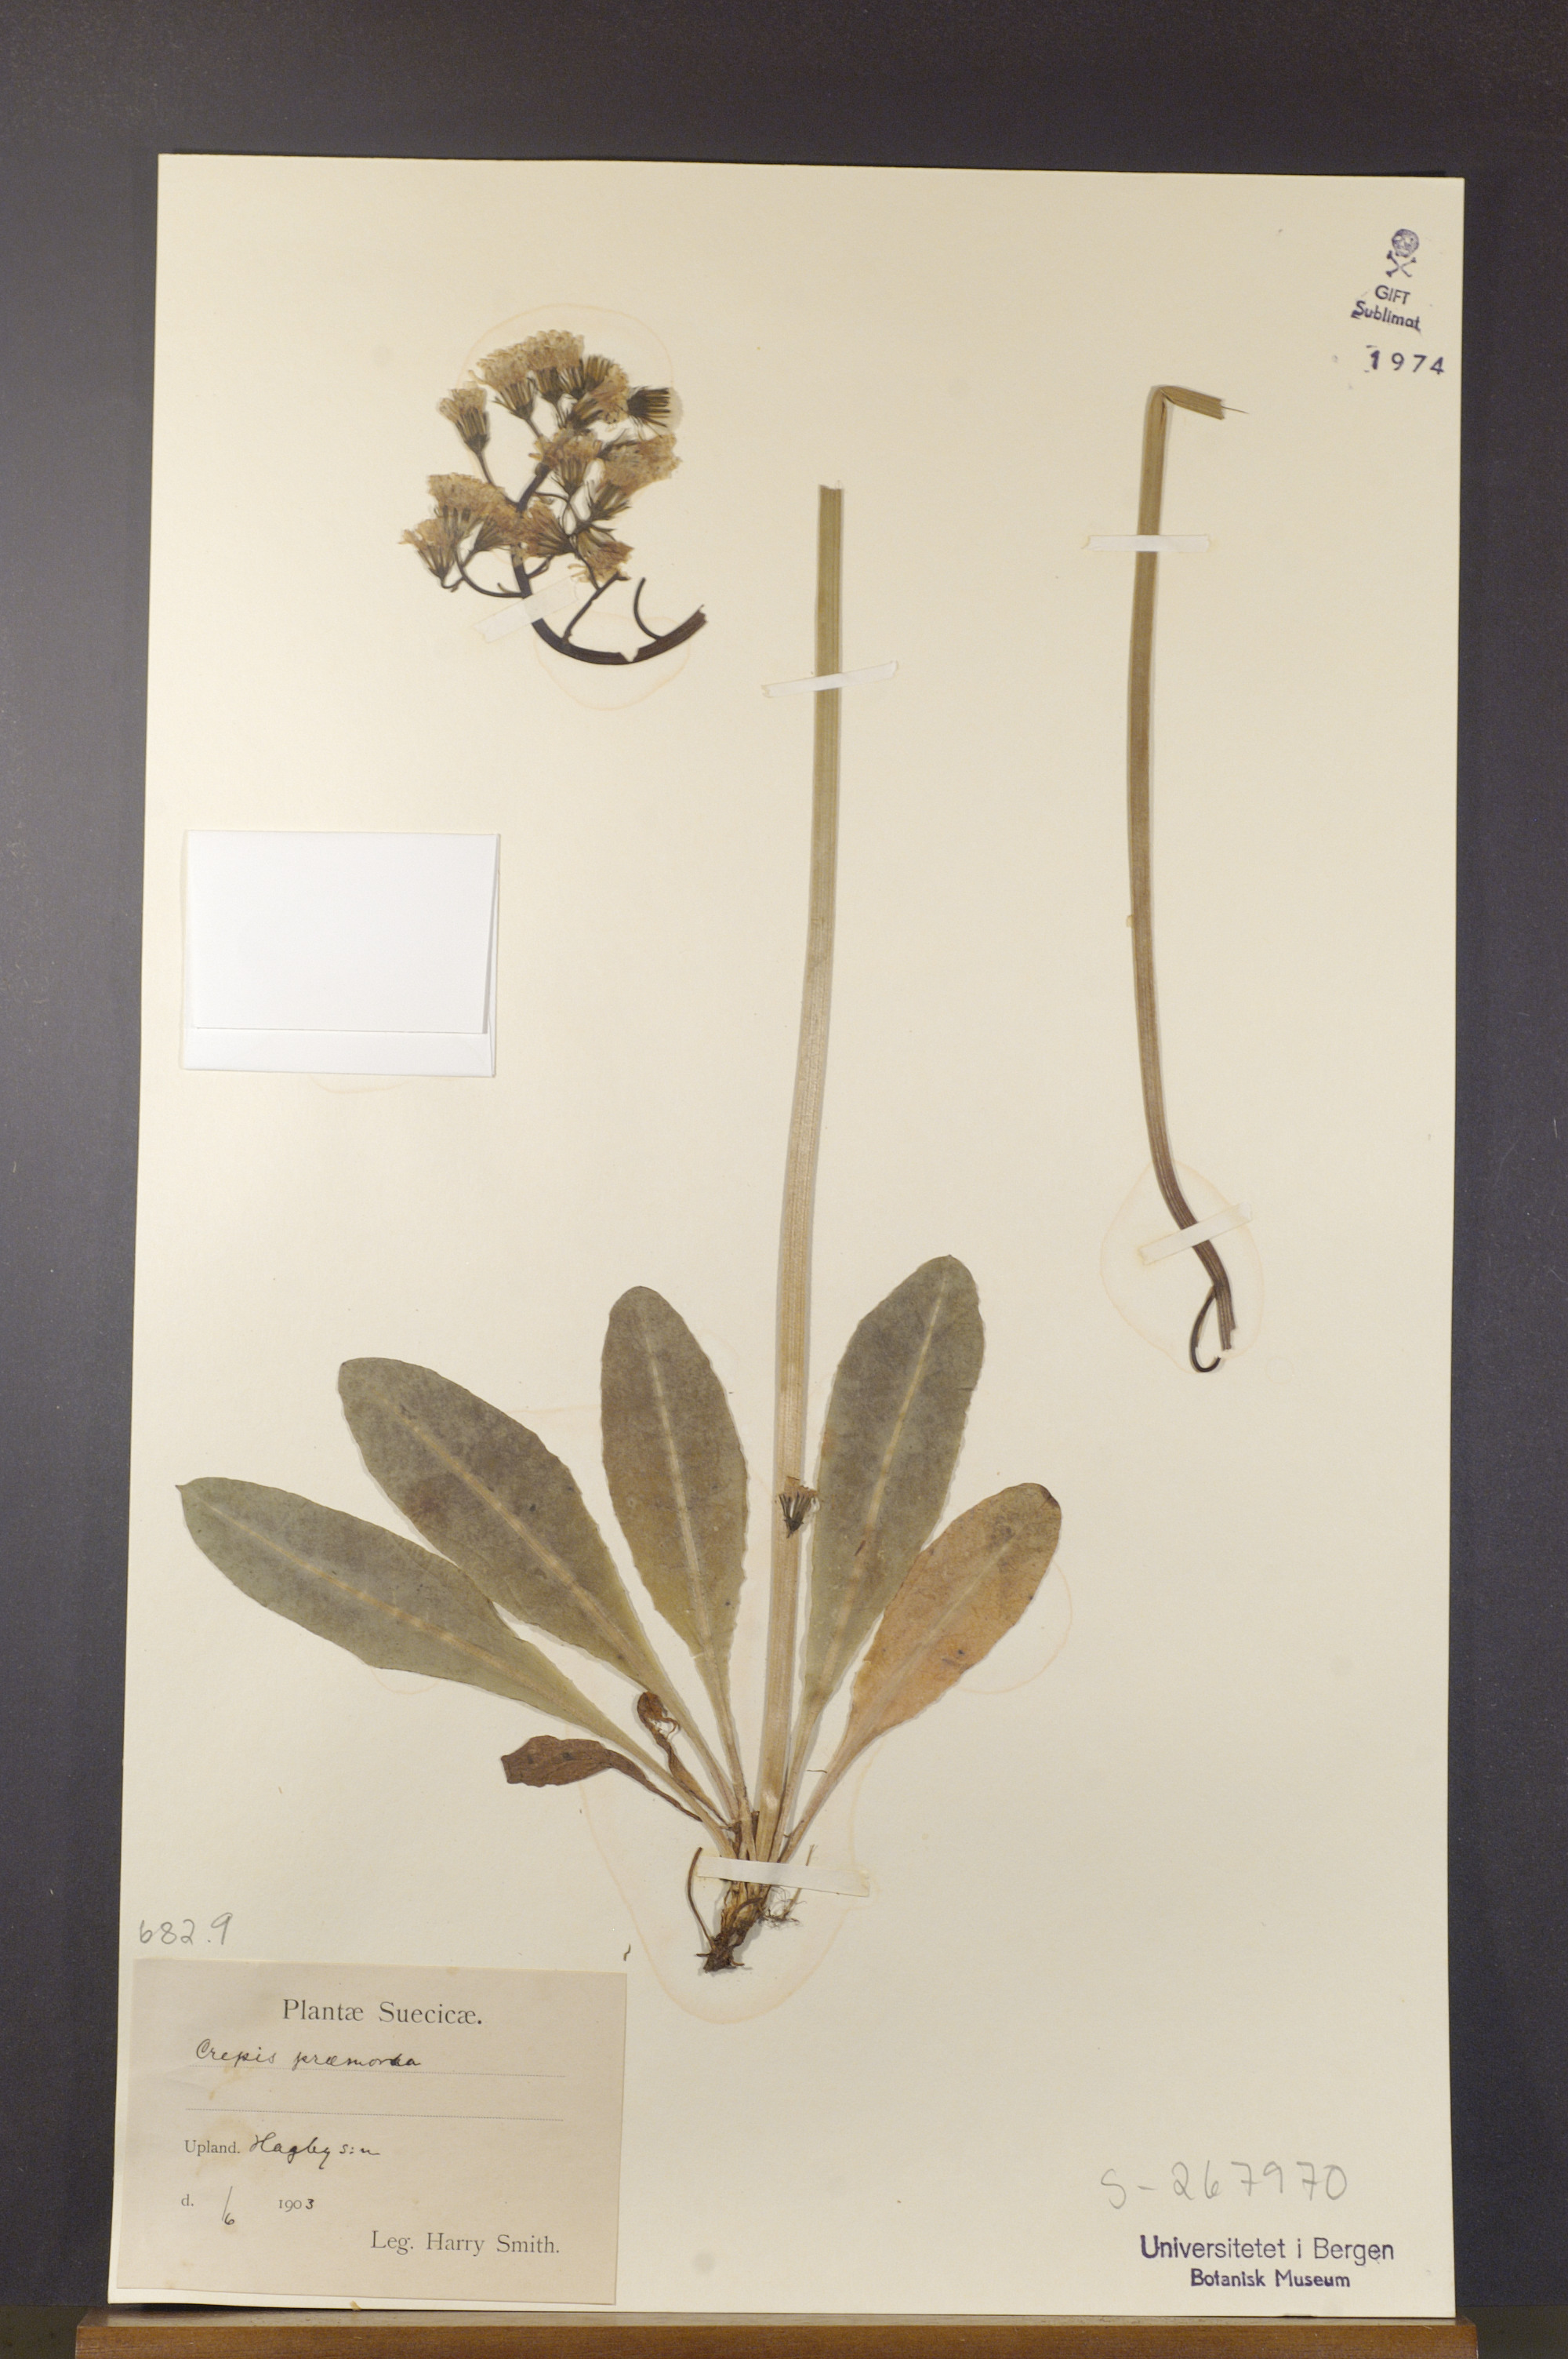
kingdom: Plantae
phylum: Tracheophyta
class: Magnoliopsida
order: Asterales
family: Asteraceae
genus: Crepis
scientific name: Crepis praemorsa
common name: Leafless hawk's-beard
